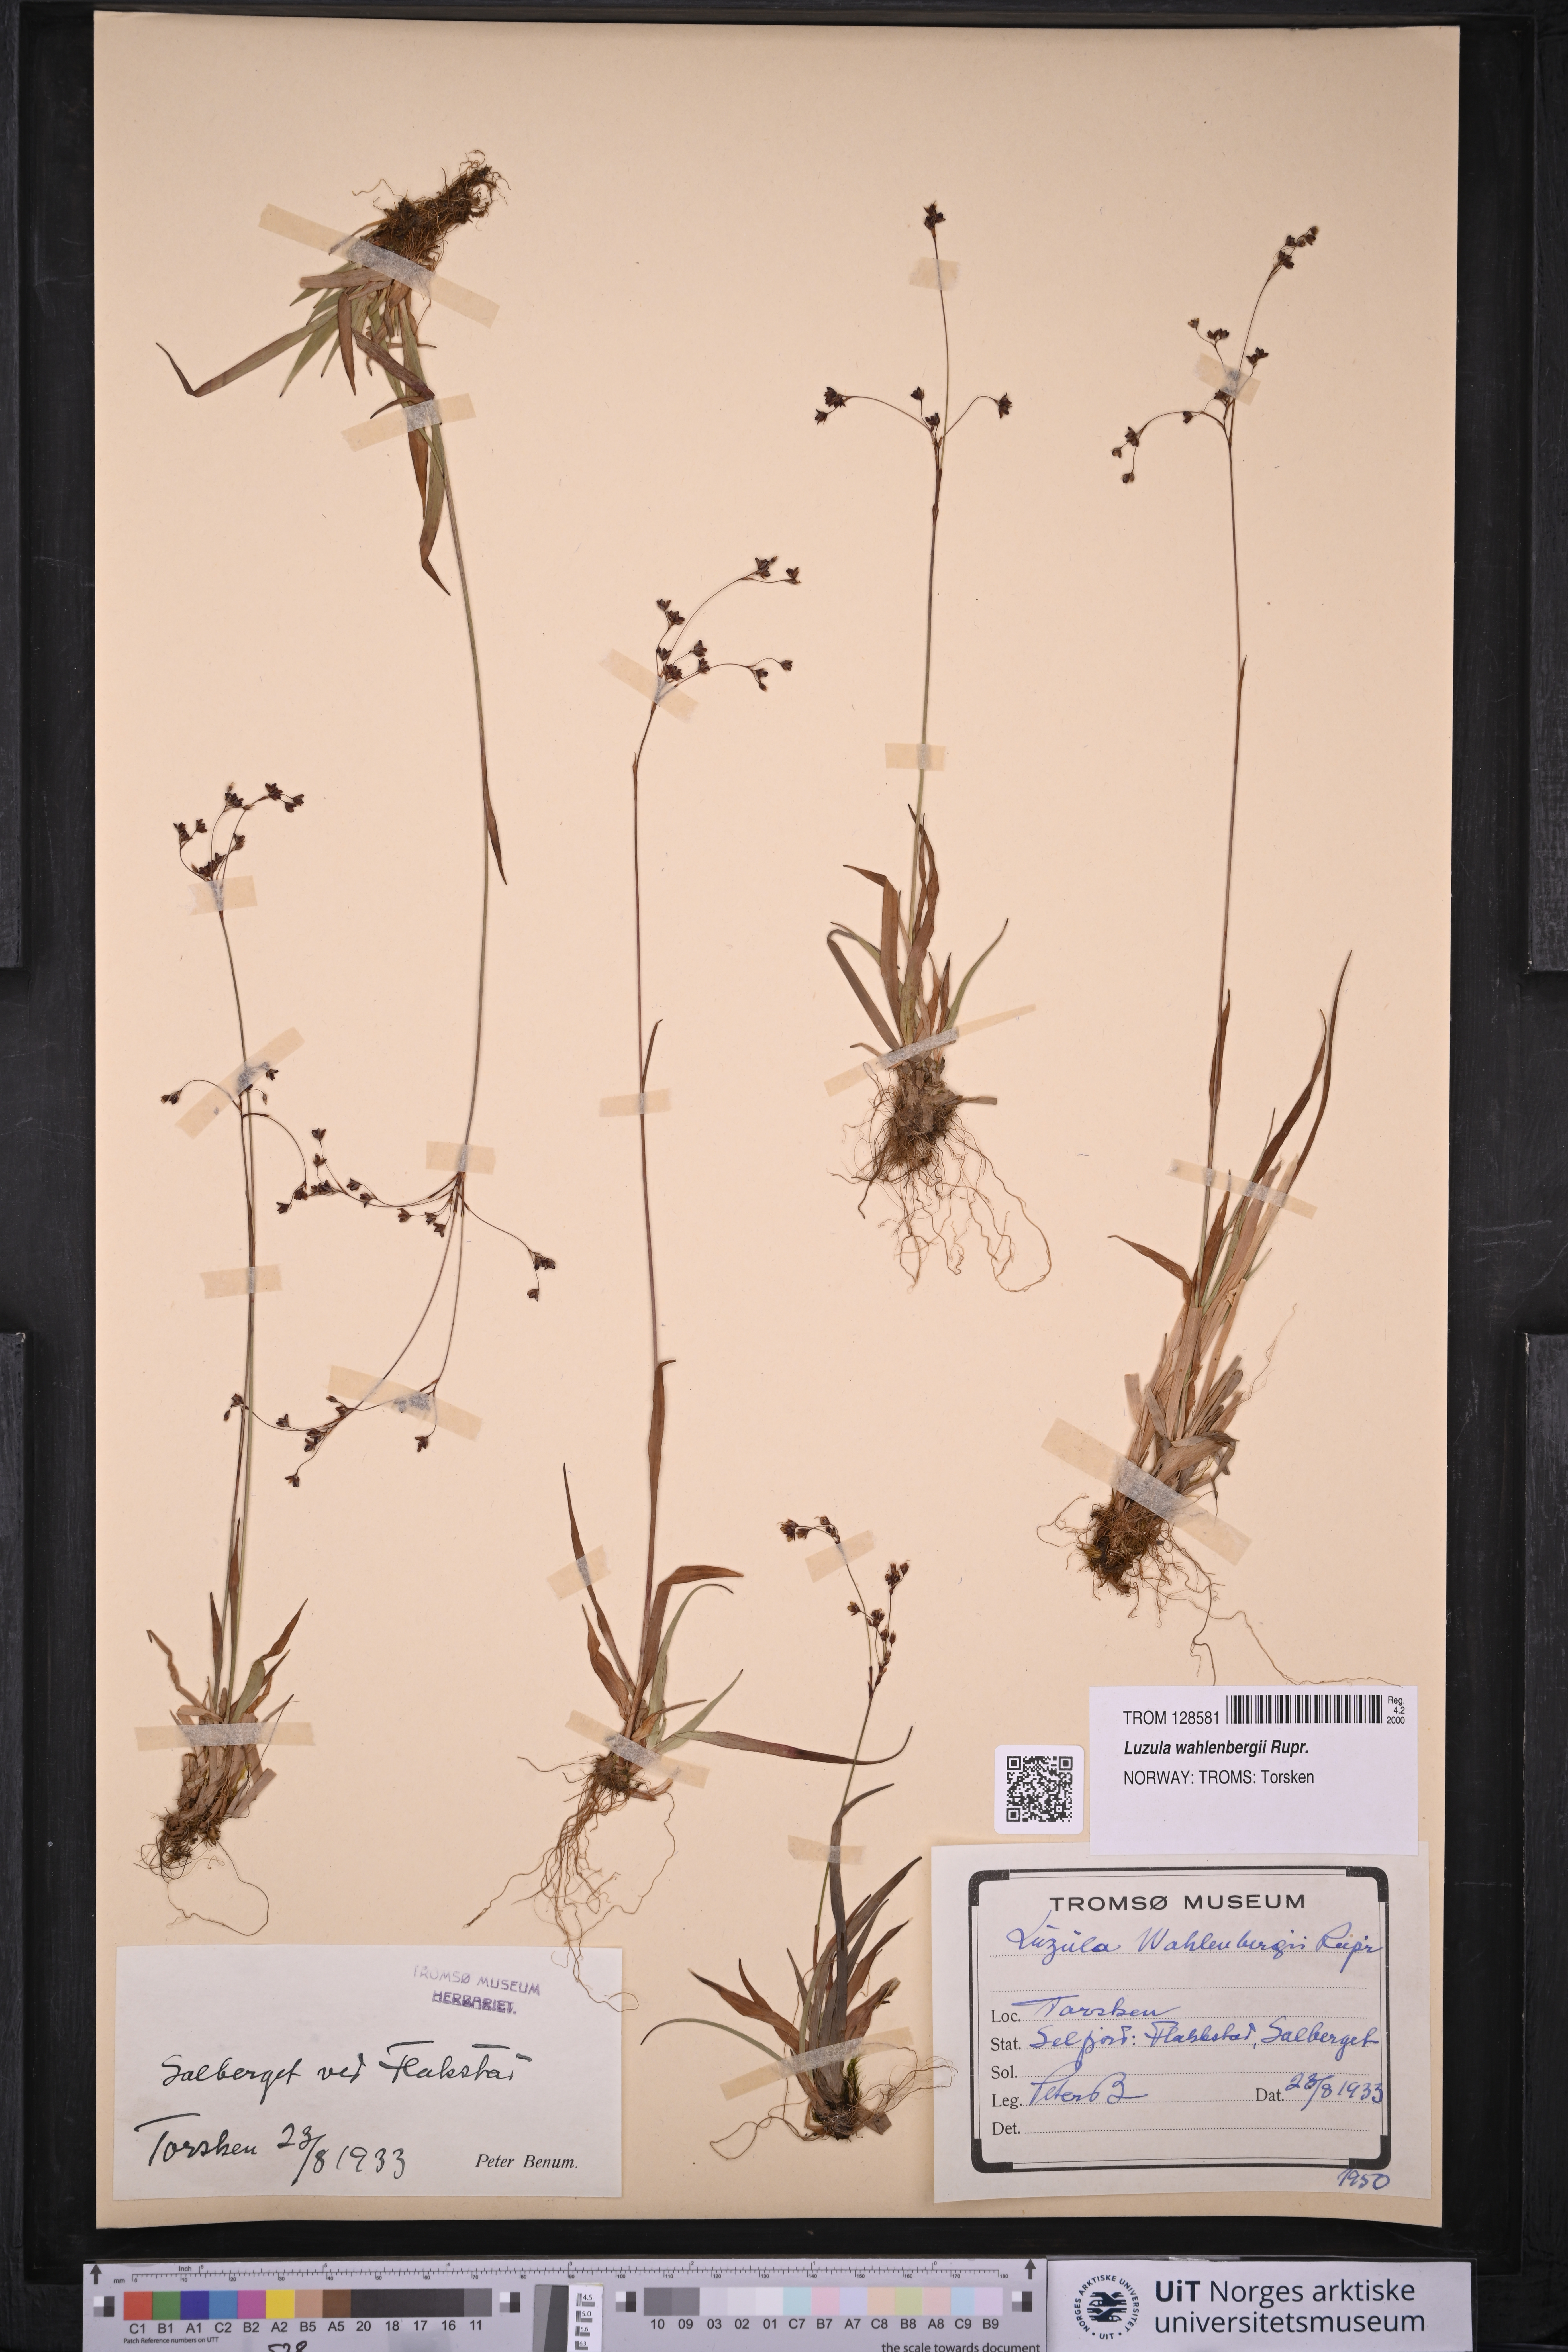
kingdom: Plantae
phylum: Tracheophyta
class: Liliopsida
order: Poales
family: Juncaceae
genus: Luzula
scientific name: Luzula wahlenbergii
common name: Wahlenberg's wood-rush
